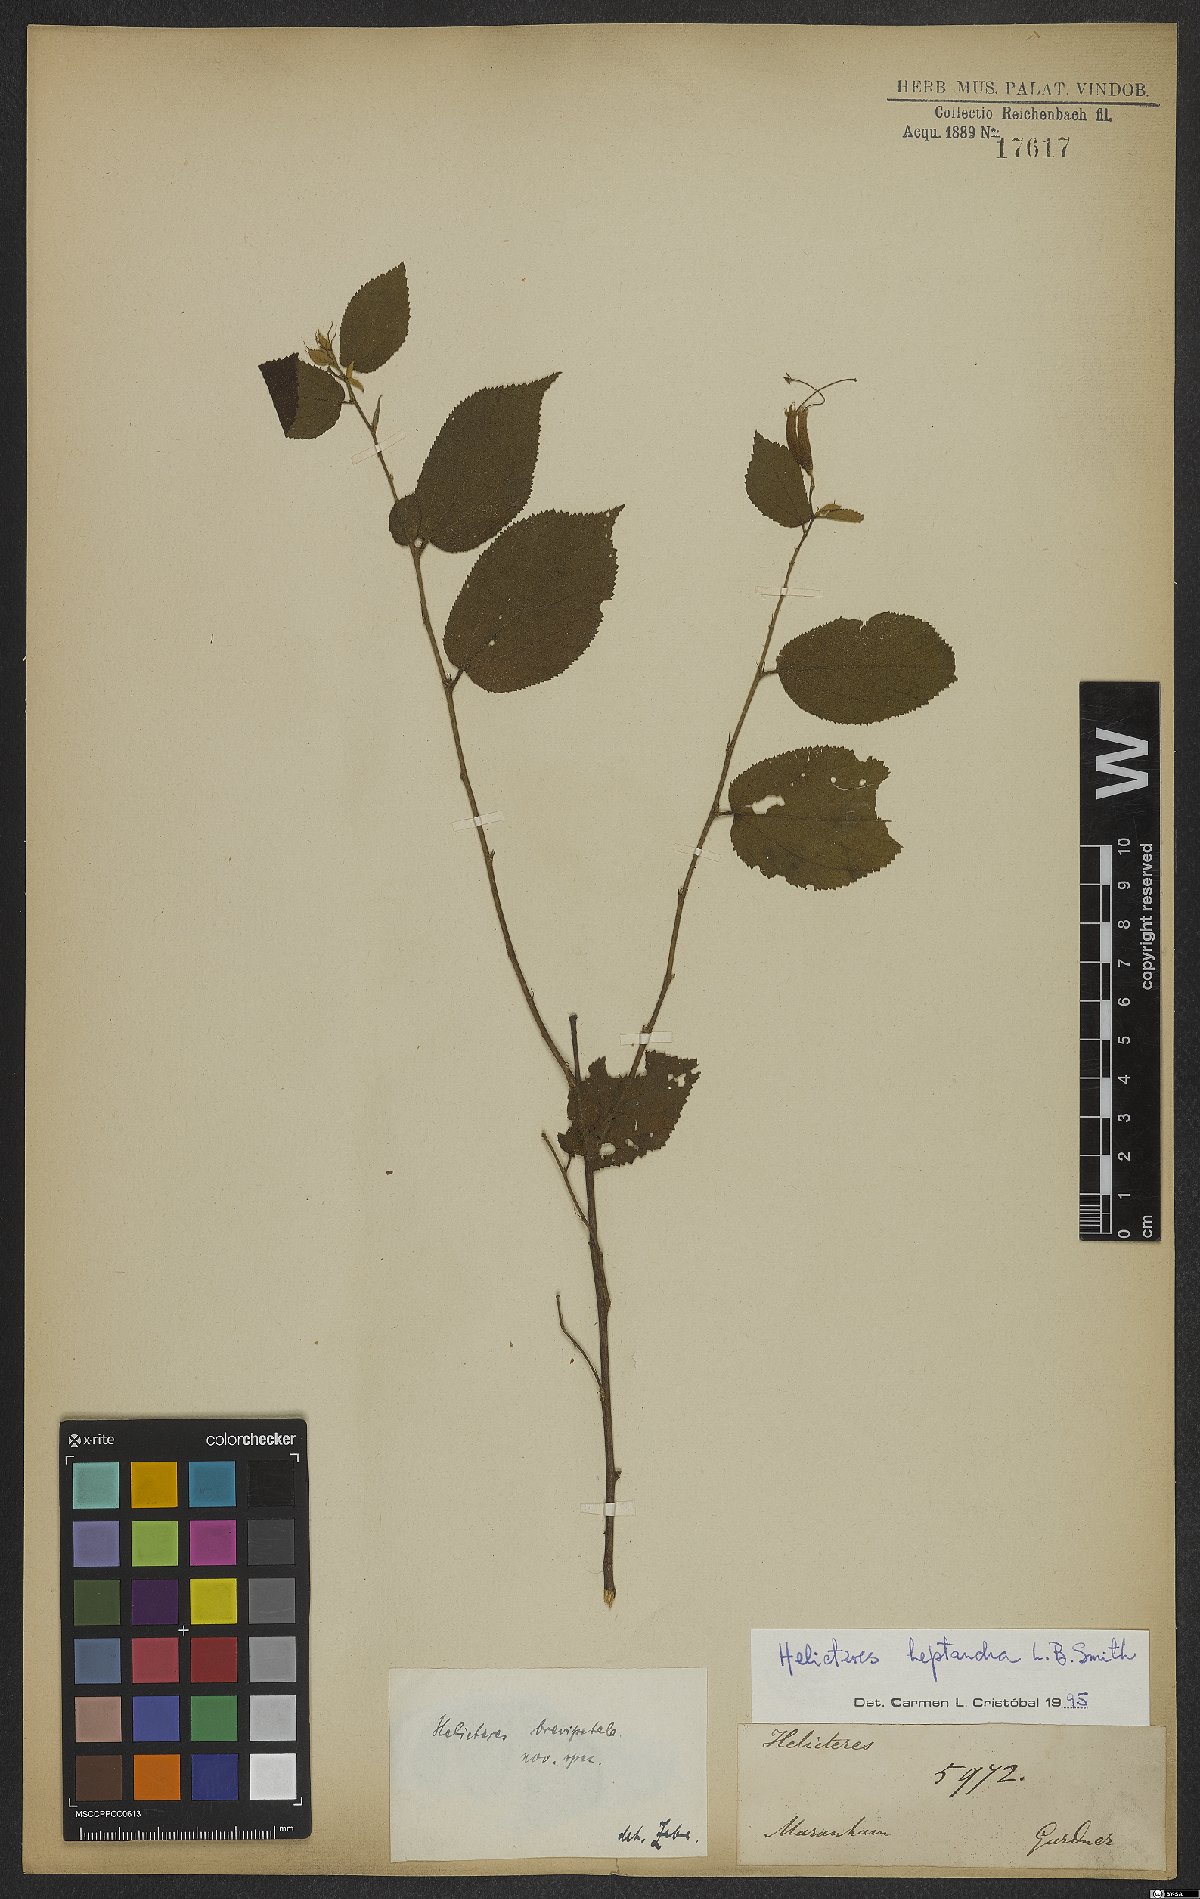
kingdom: Plantae
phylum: Tracheophyta
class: Magnoliopsida
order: Malvales
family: Malvaceae
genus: Helicteres
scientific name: Helicteres heptandra
